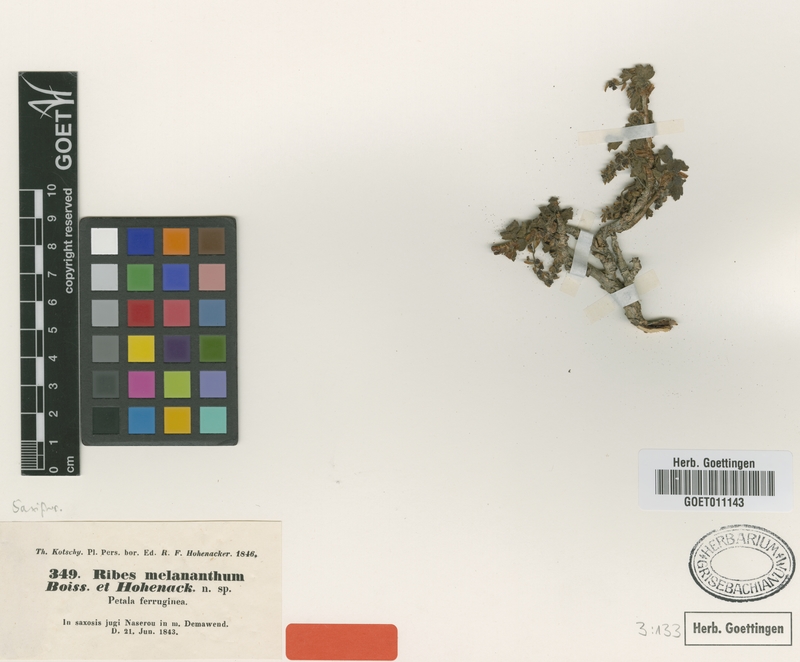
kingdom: Plantae
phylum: Tracheophyta
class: Magnoliopsida
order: Saxifragales
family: Grossulariaceae
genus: Ribes
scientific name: Ribes melananthum
